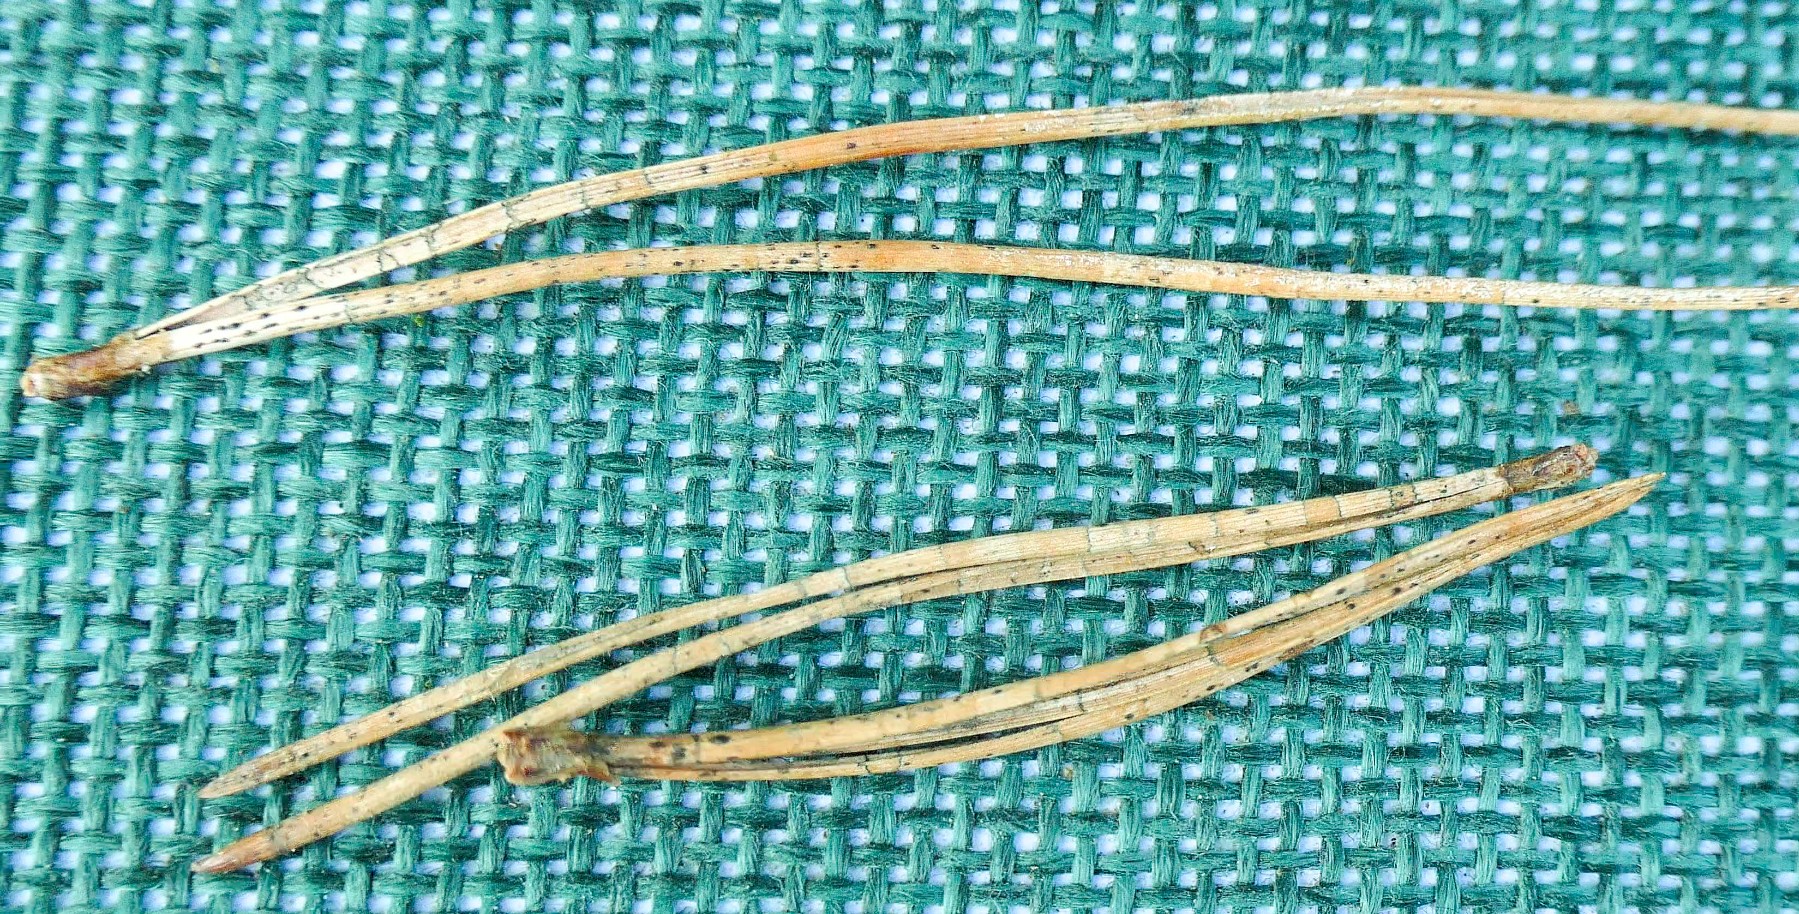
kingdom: Fungi
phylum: Ascomycota
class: Leotiomycetes
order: Rhytismatales
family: Rhytismataceae
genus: Lophodermium
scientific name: Lophodermium pinastri
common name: fyrre-fureplet
